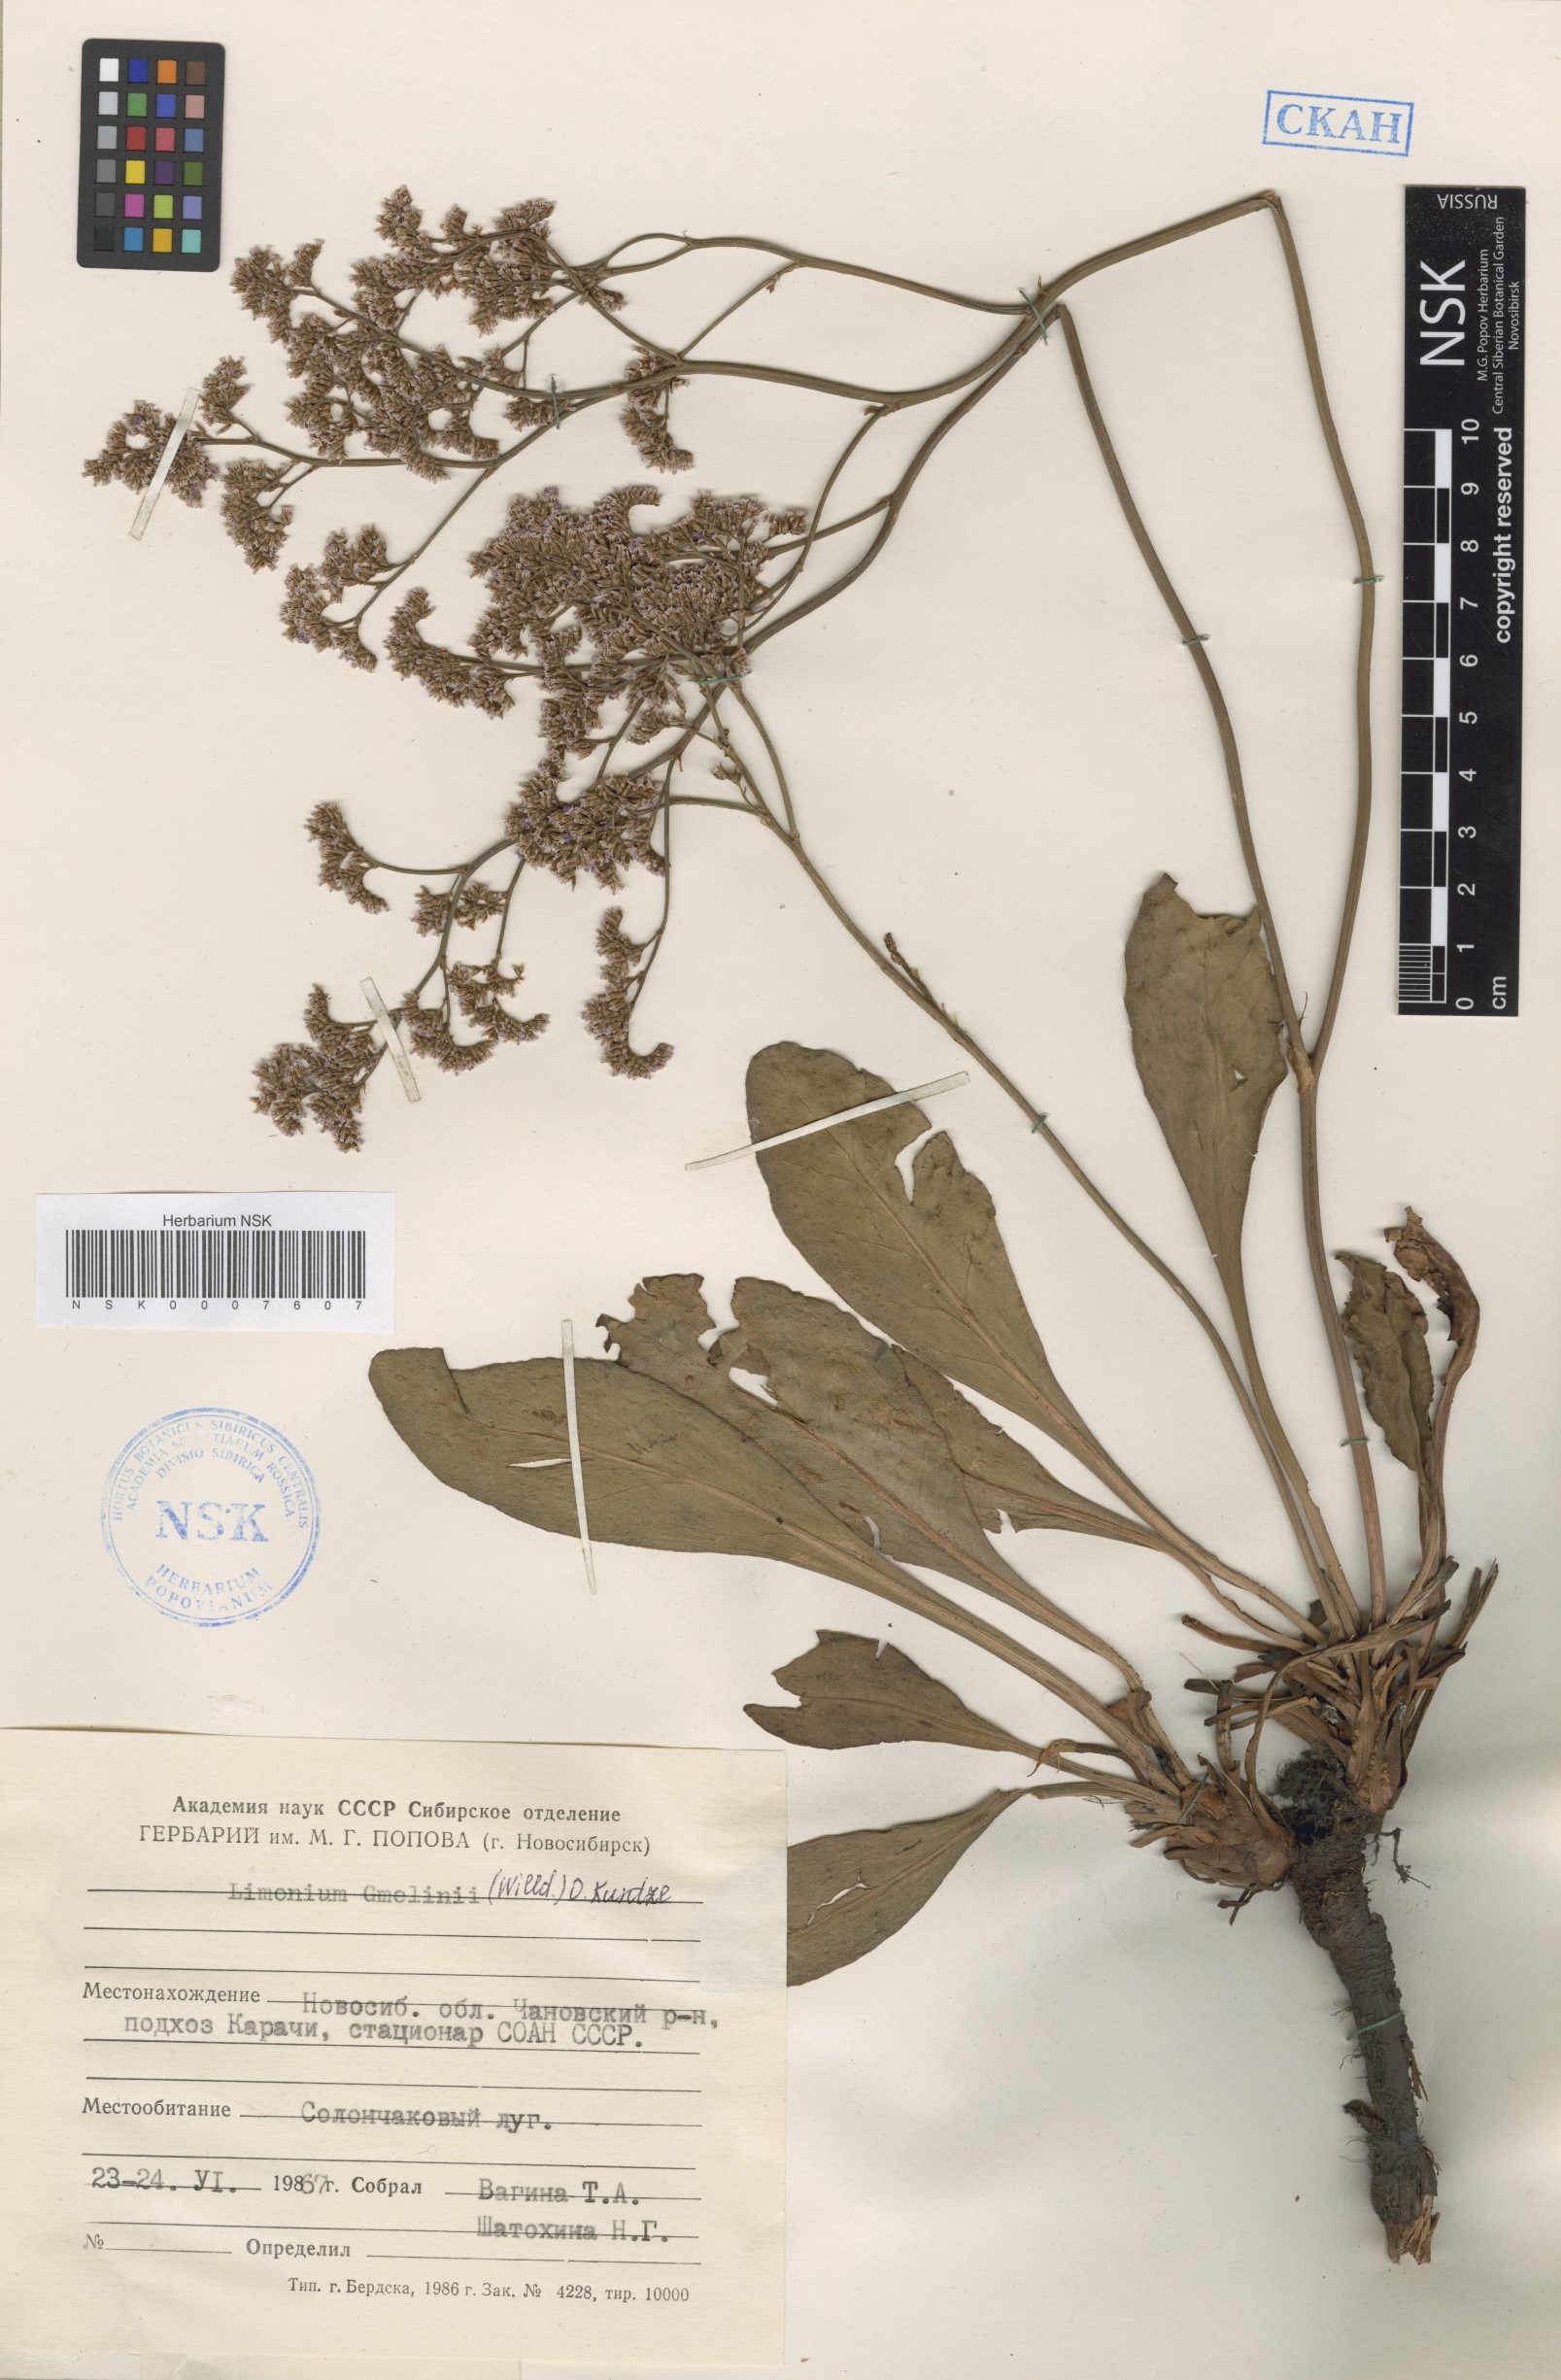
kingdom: Plantae
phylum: Tracheophyta
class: Magnoliopsida
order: Caryophyllales
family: Plumbaginaceae
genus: Limonium
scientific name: Limonium gmelini
